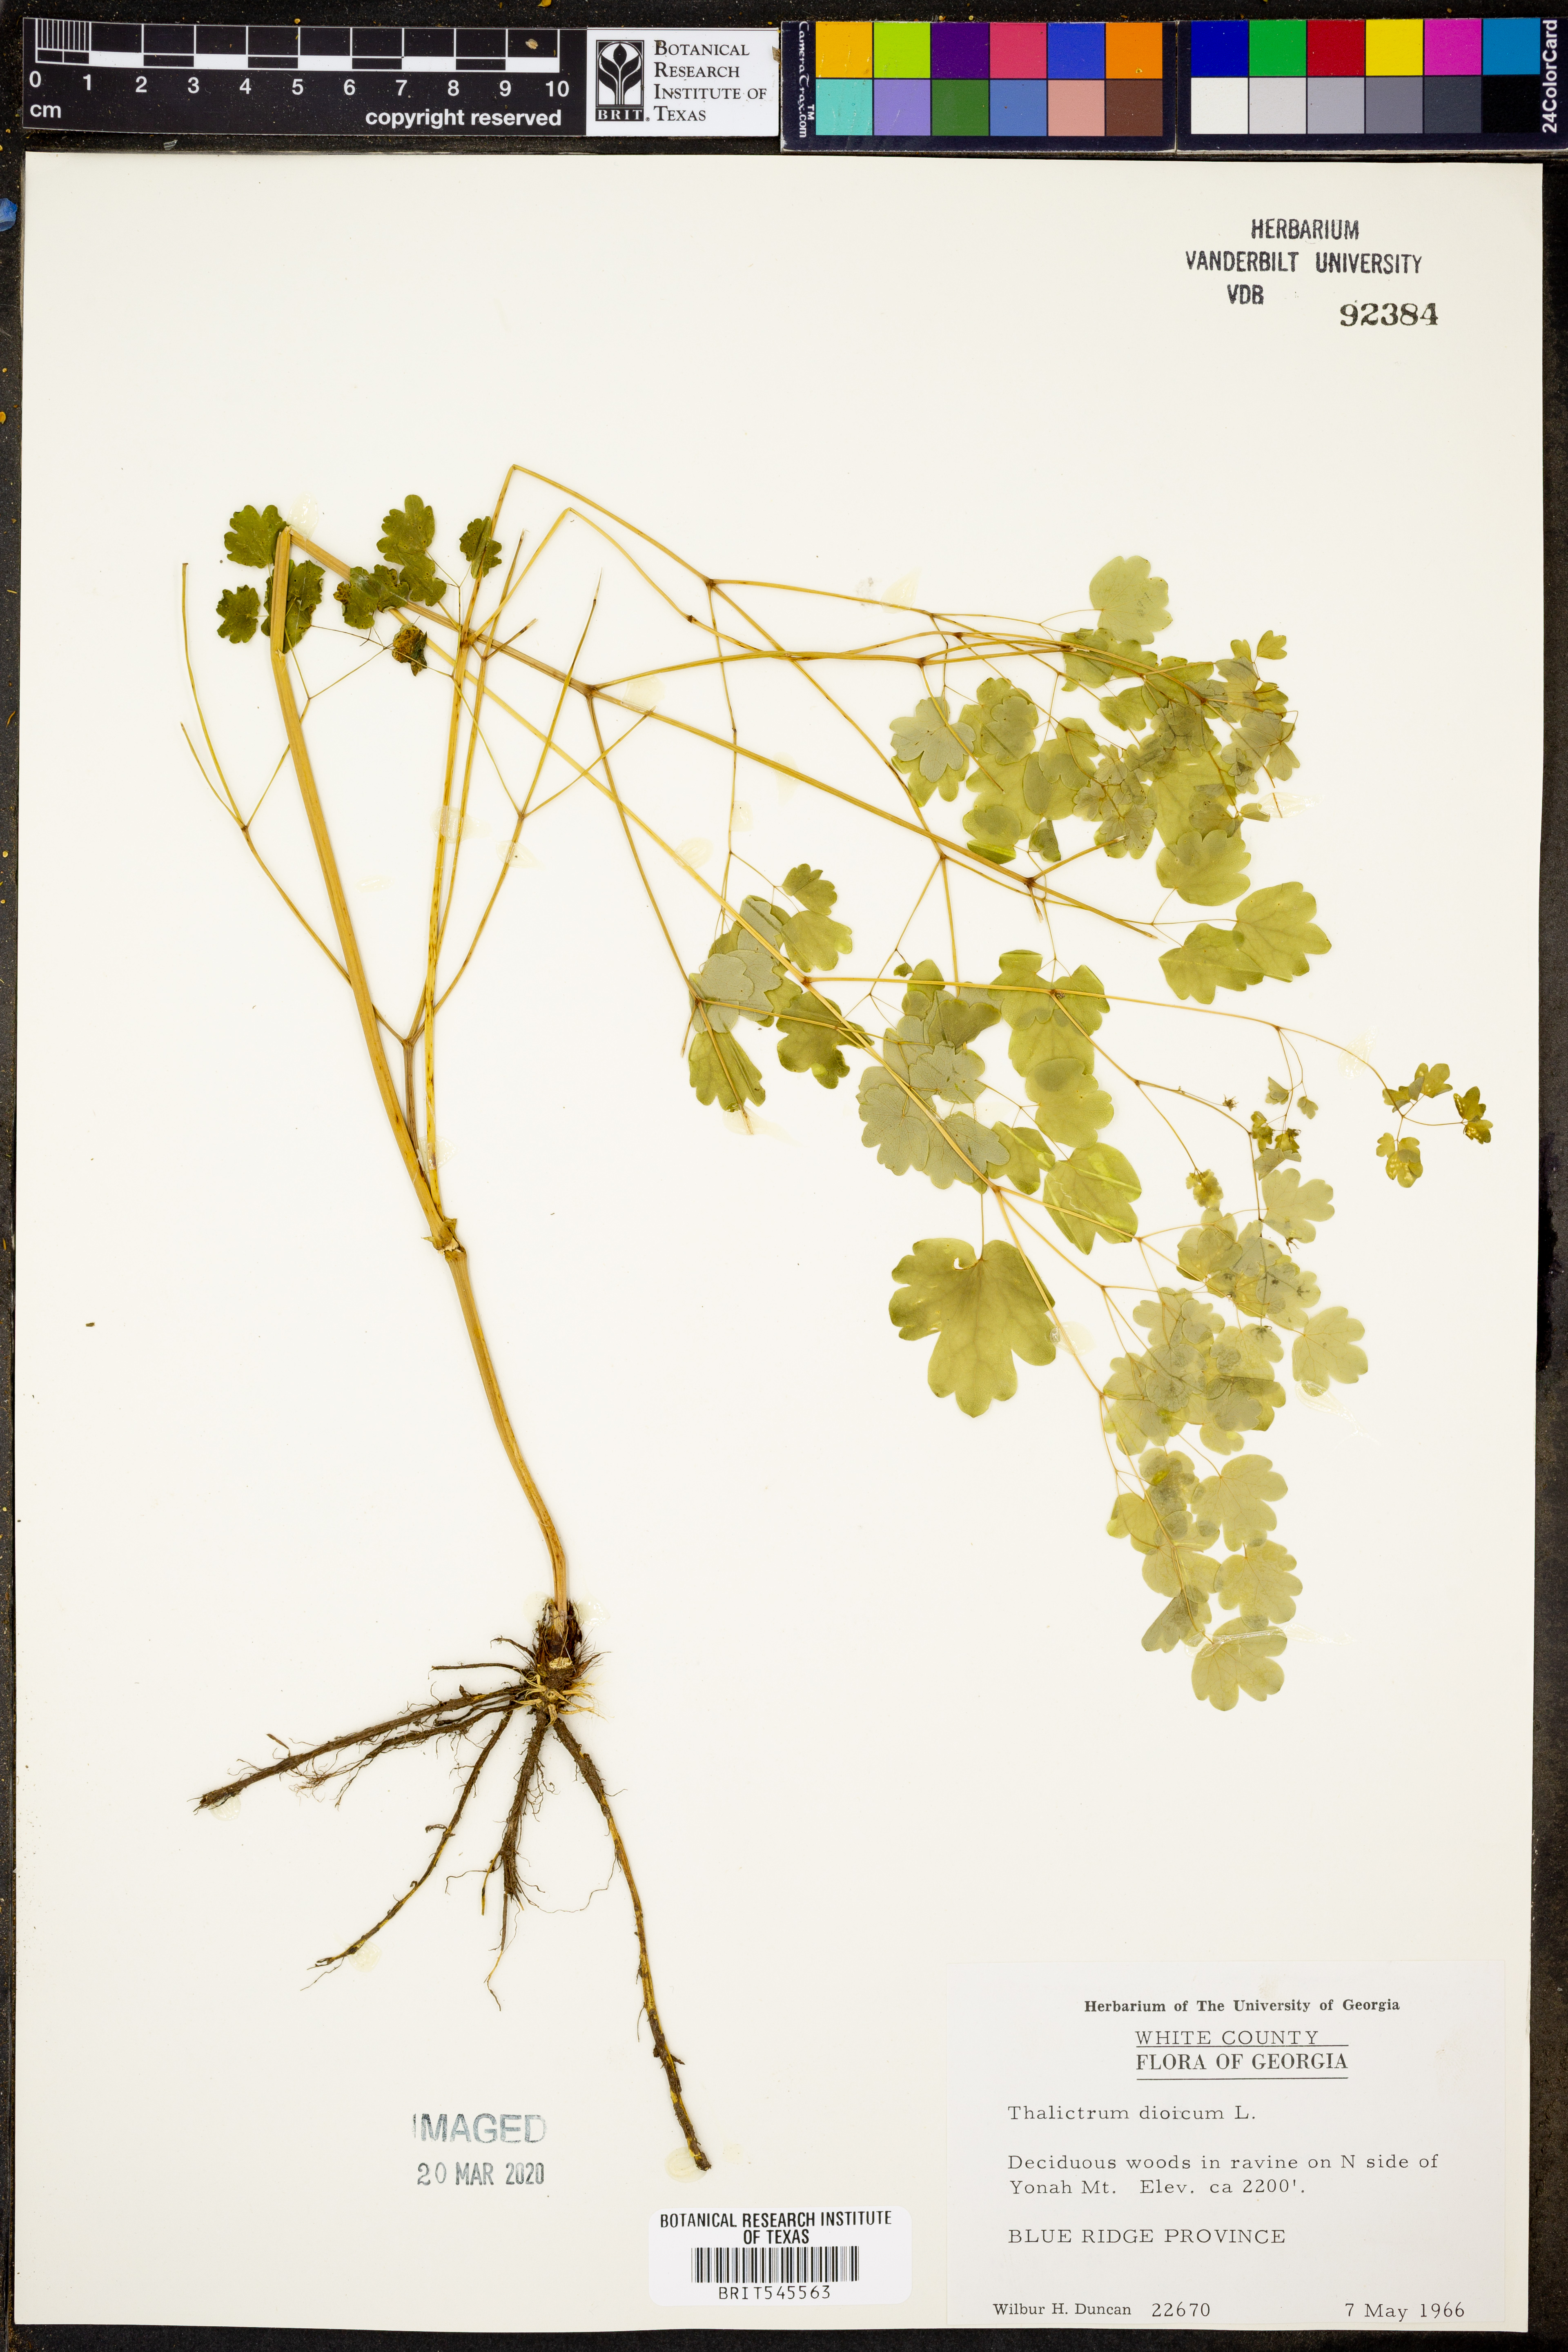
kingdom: Plantae
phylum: Tracheophyta
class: Magnoliopsida
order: Ranunculales
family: Ranunculaceae
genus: Thalictrum
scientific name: Thalictrum dioicum
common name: Early meadow-rue
